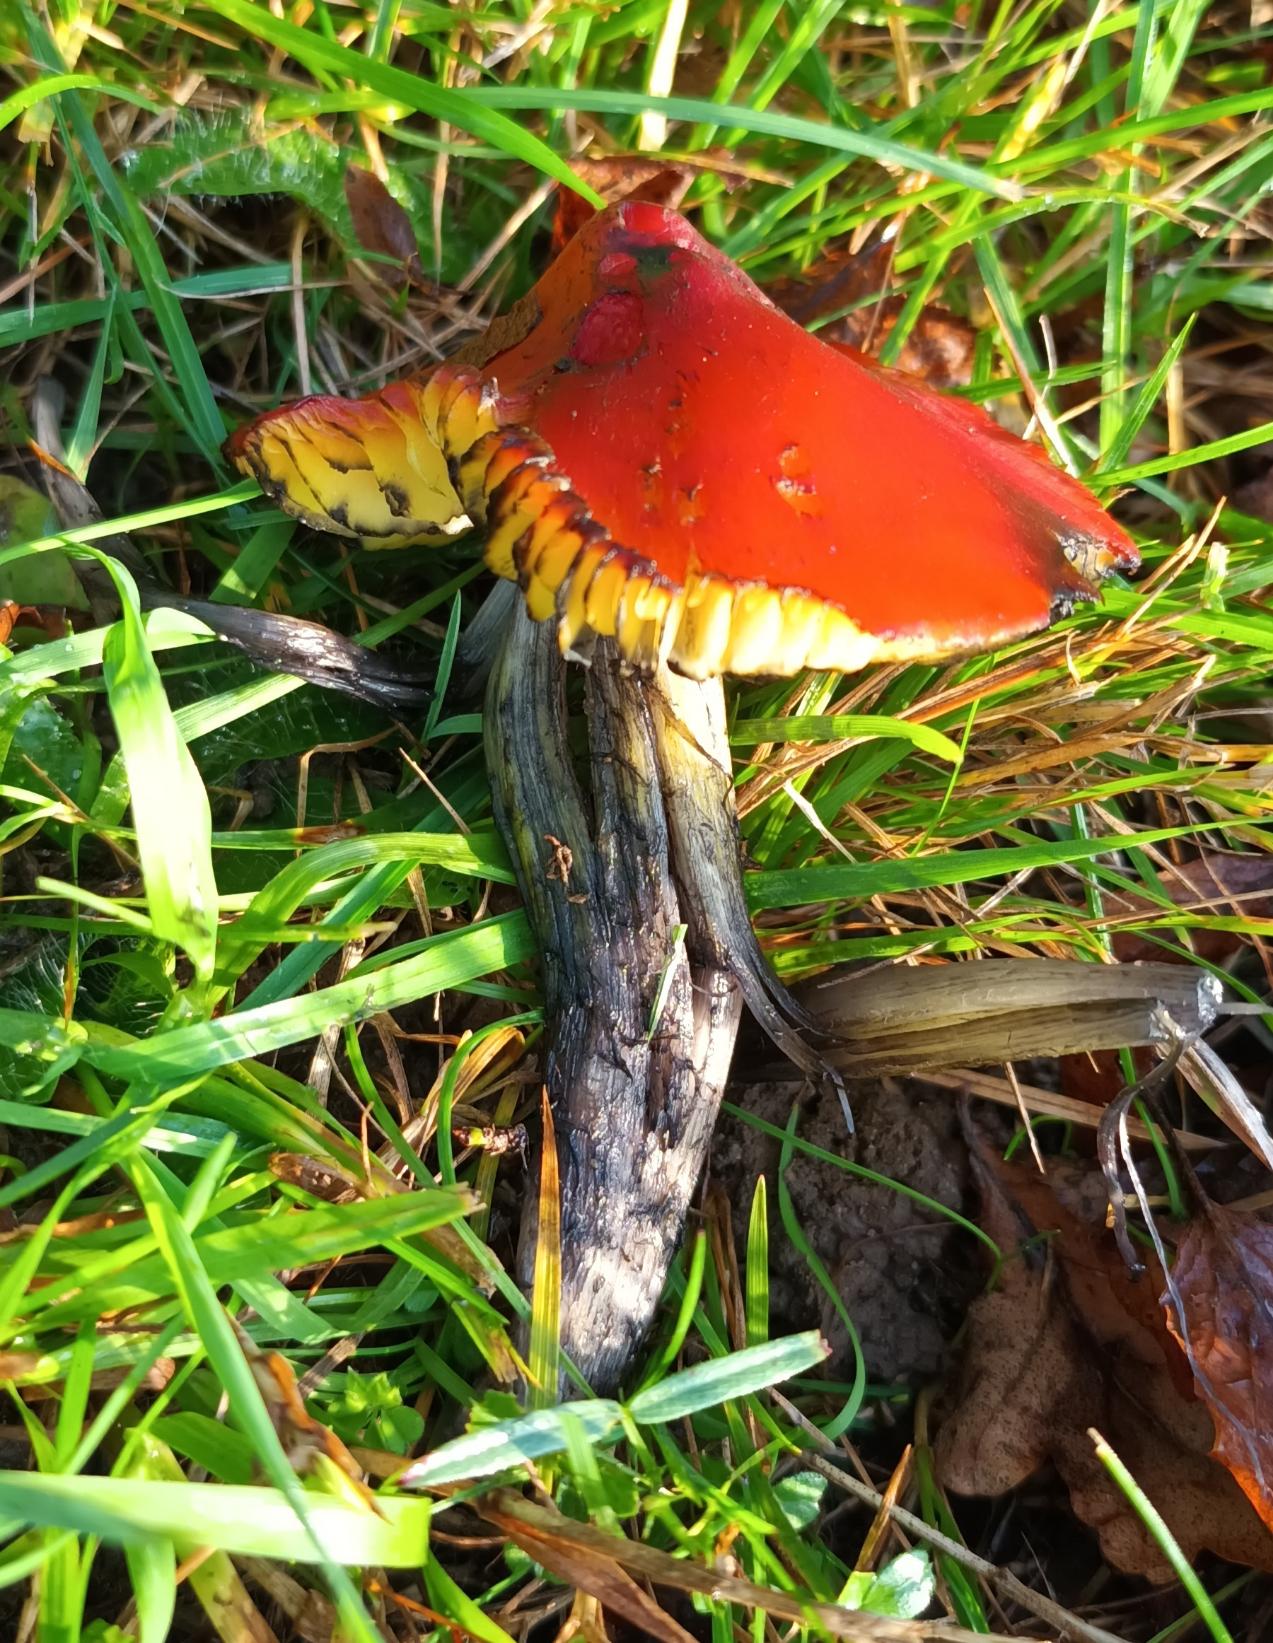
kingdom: Fungi
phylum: Basidiomycota
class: Agaricomycetes
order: Agaricales
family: Hygrophoraceae
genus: Hygrocybe
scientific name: Hygrocybe conica
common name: Kegle-vokshat
